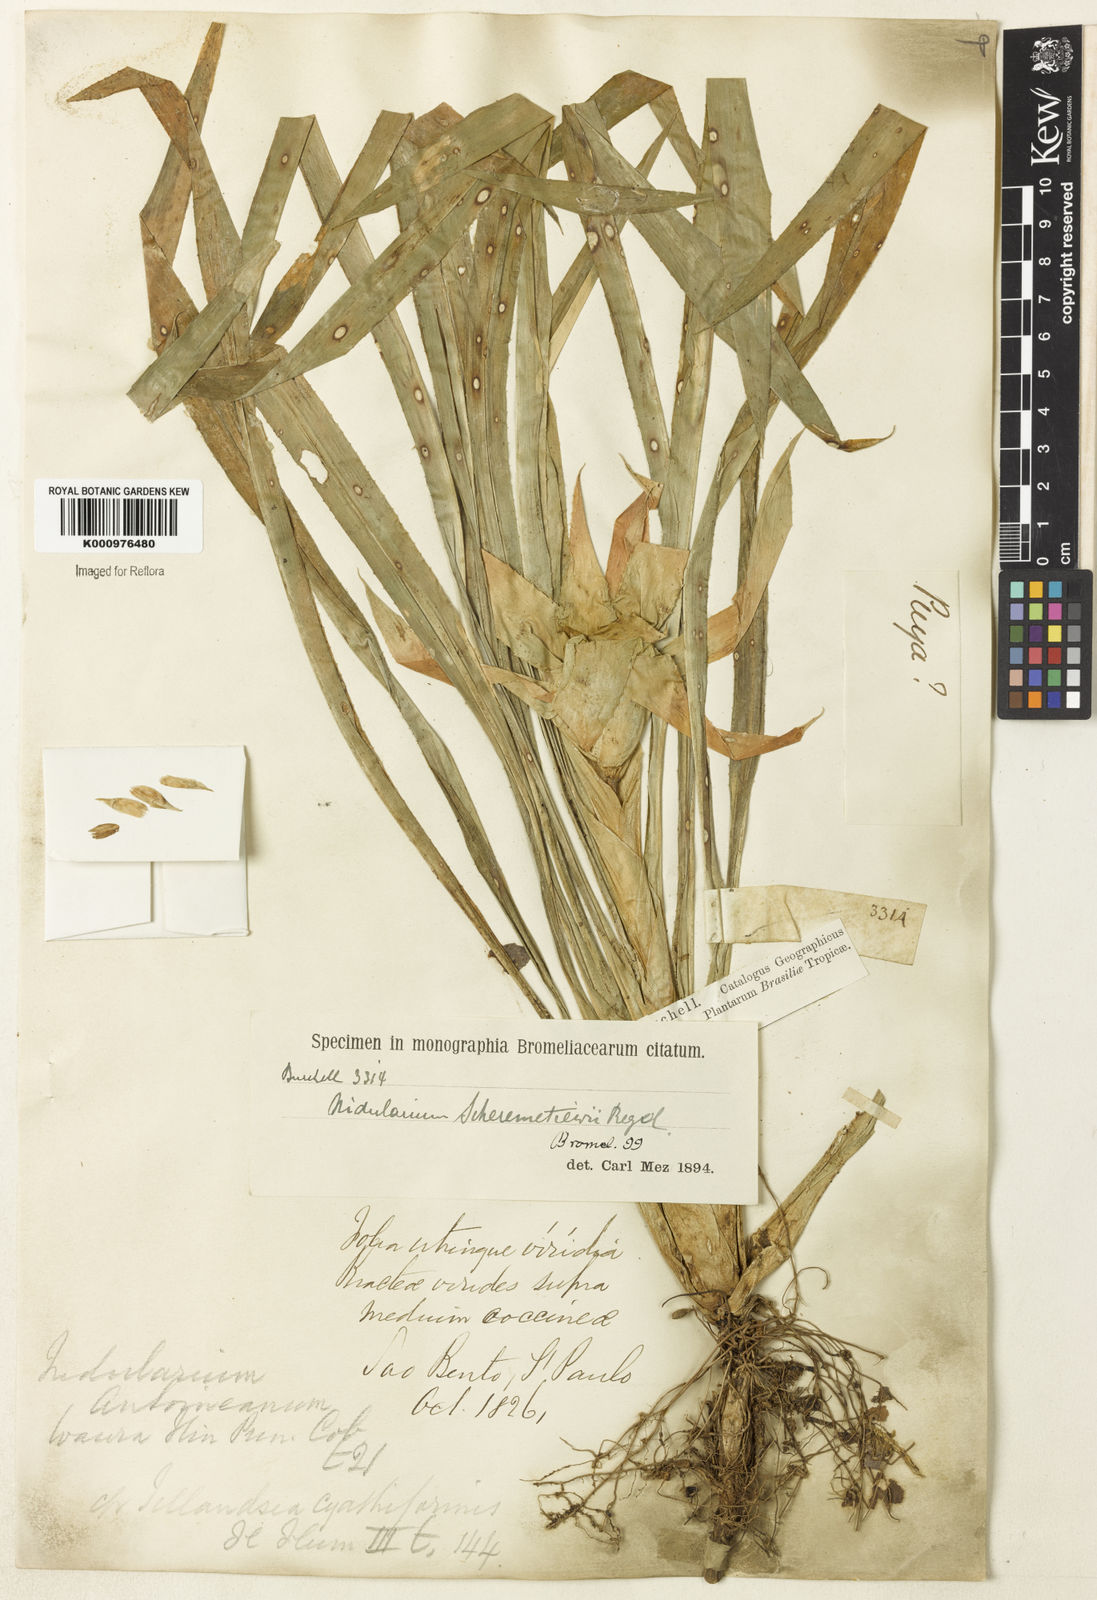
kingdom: Plantae
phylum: Tracheophyta
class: Liliopsida
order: Poales
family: Bromeliaceae
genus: Nidularium
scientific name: Nidularium scheremetiewii
